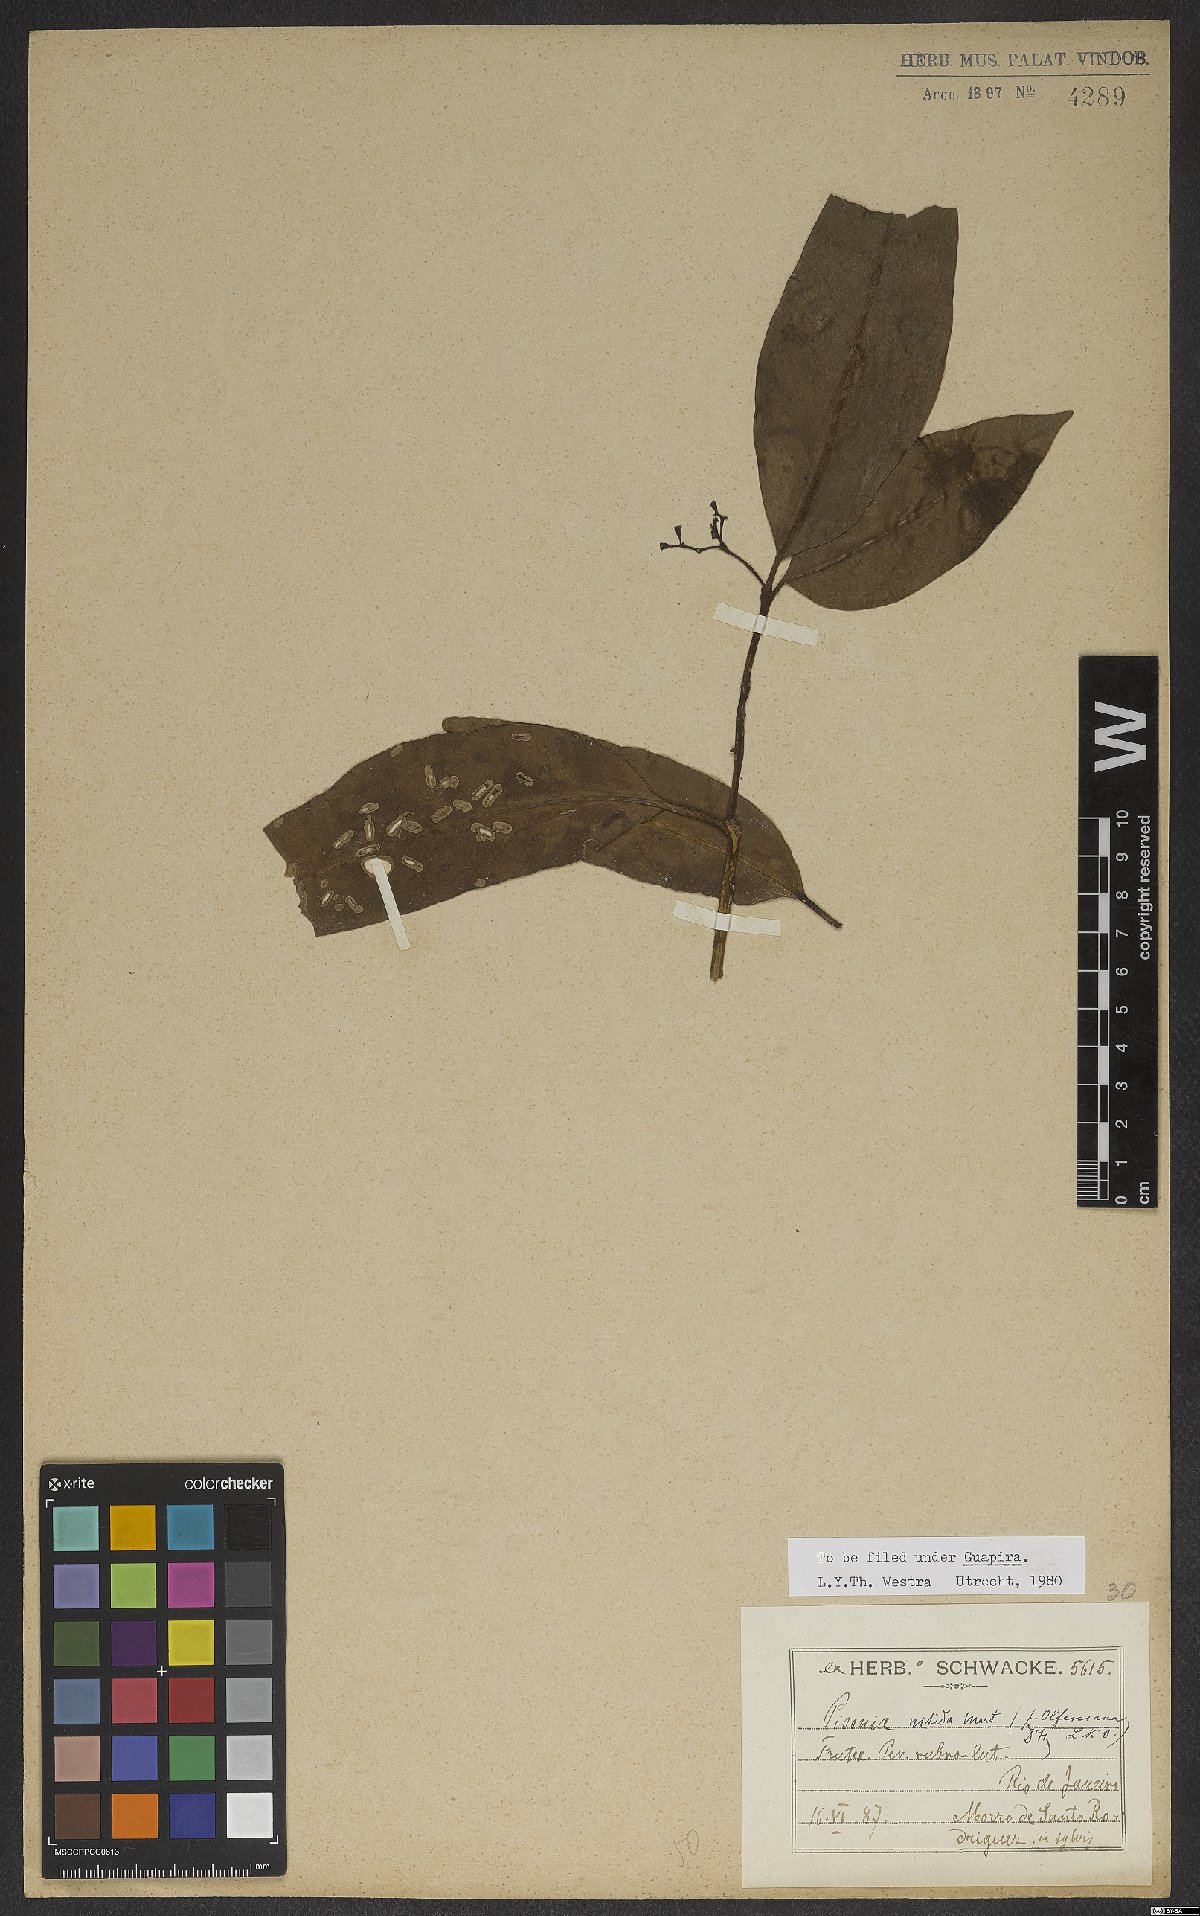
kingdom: Plantae
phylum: Tracheophyta
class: Magnoliopsida
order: Caryophyllales
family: Nyctaginaceae
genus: Guapira
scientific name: Guapira nitida
